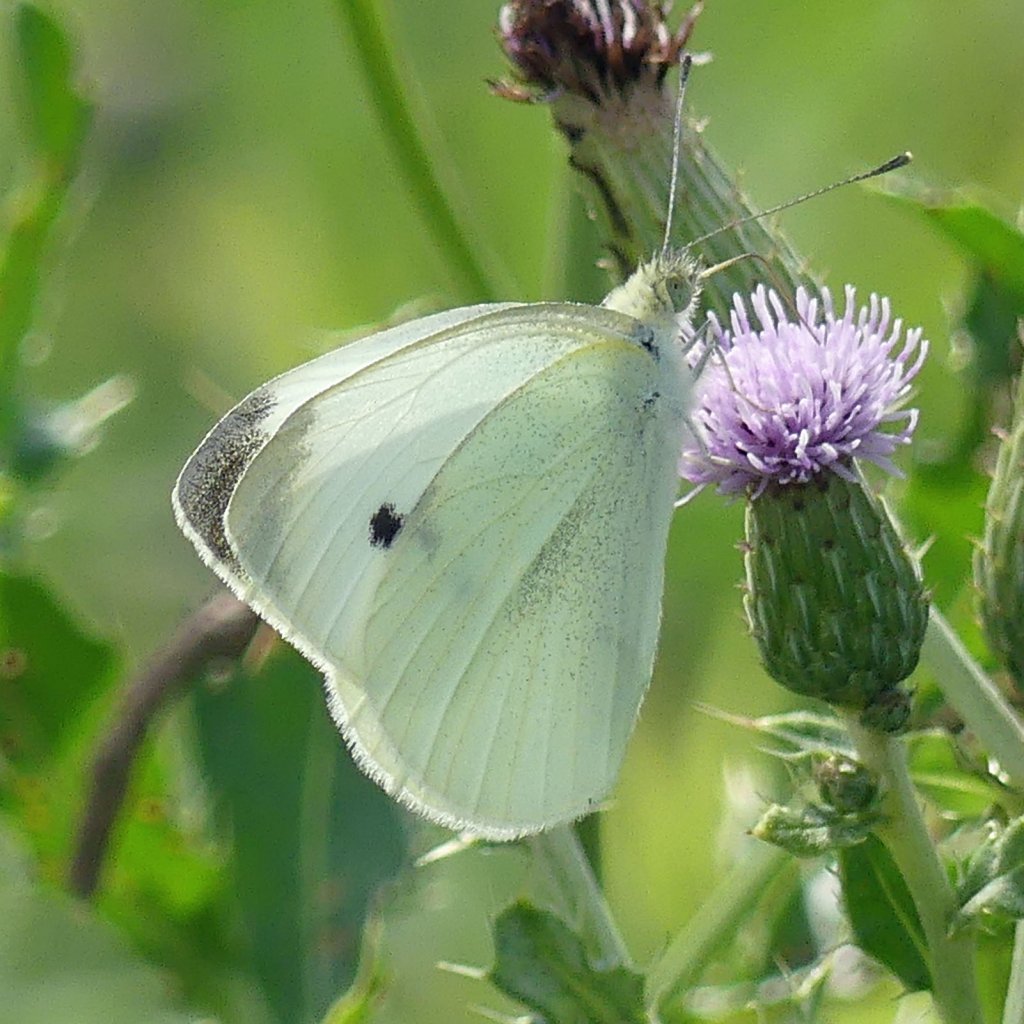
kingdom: Animalia
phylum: Arthropoda
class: Insecta
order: Lepidoptera
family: Pieridae
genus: Pieris
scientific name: Pieris rapae
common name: Cabbage White
